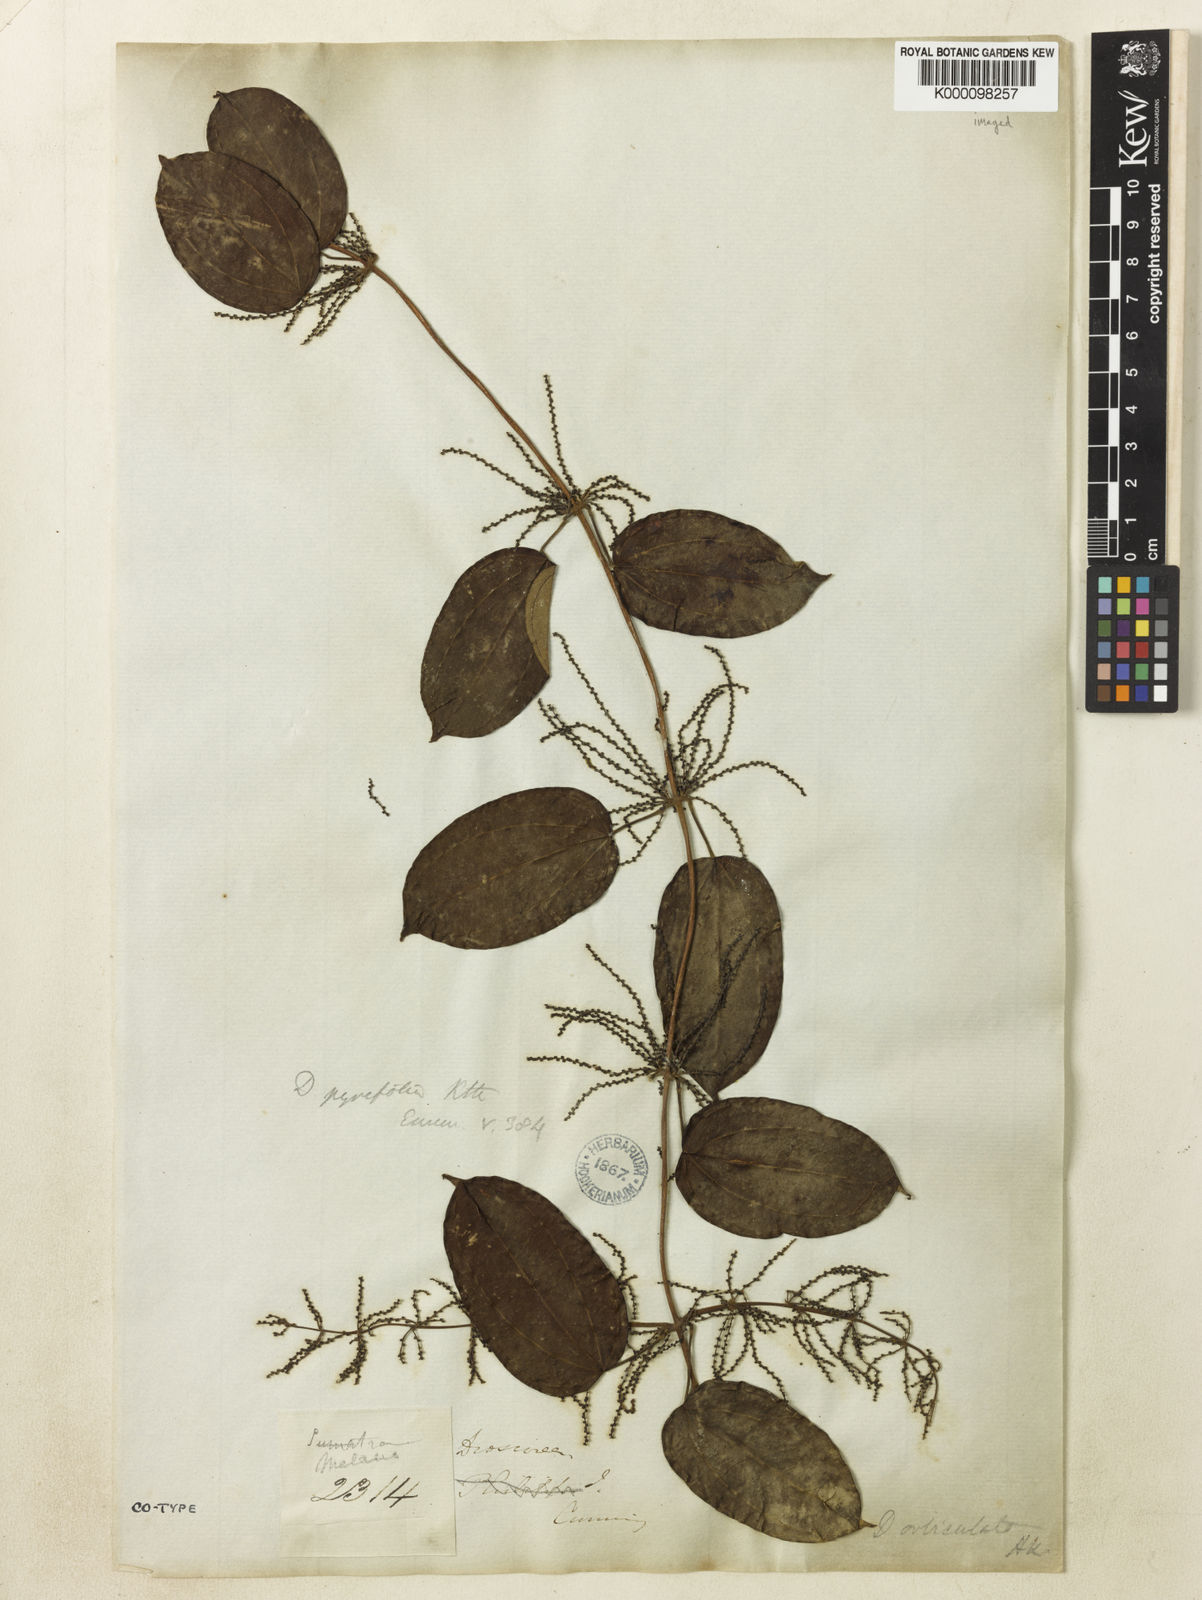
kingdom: Plantae
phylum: Tracheophyta
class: Liliopsida
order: Dioscoreales
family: Dioscoreaceae
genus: Dioscorea
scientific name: Dioscorea pyrifolia
